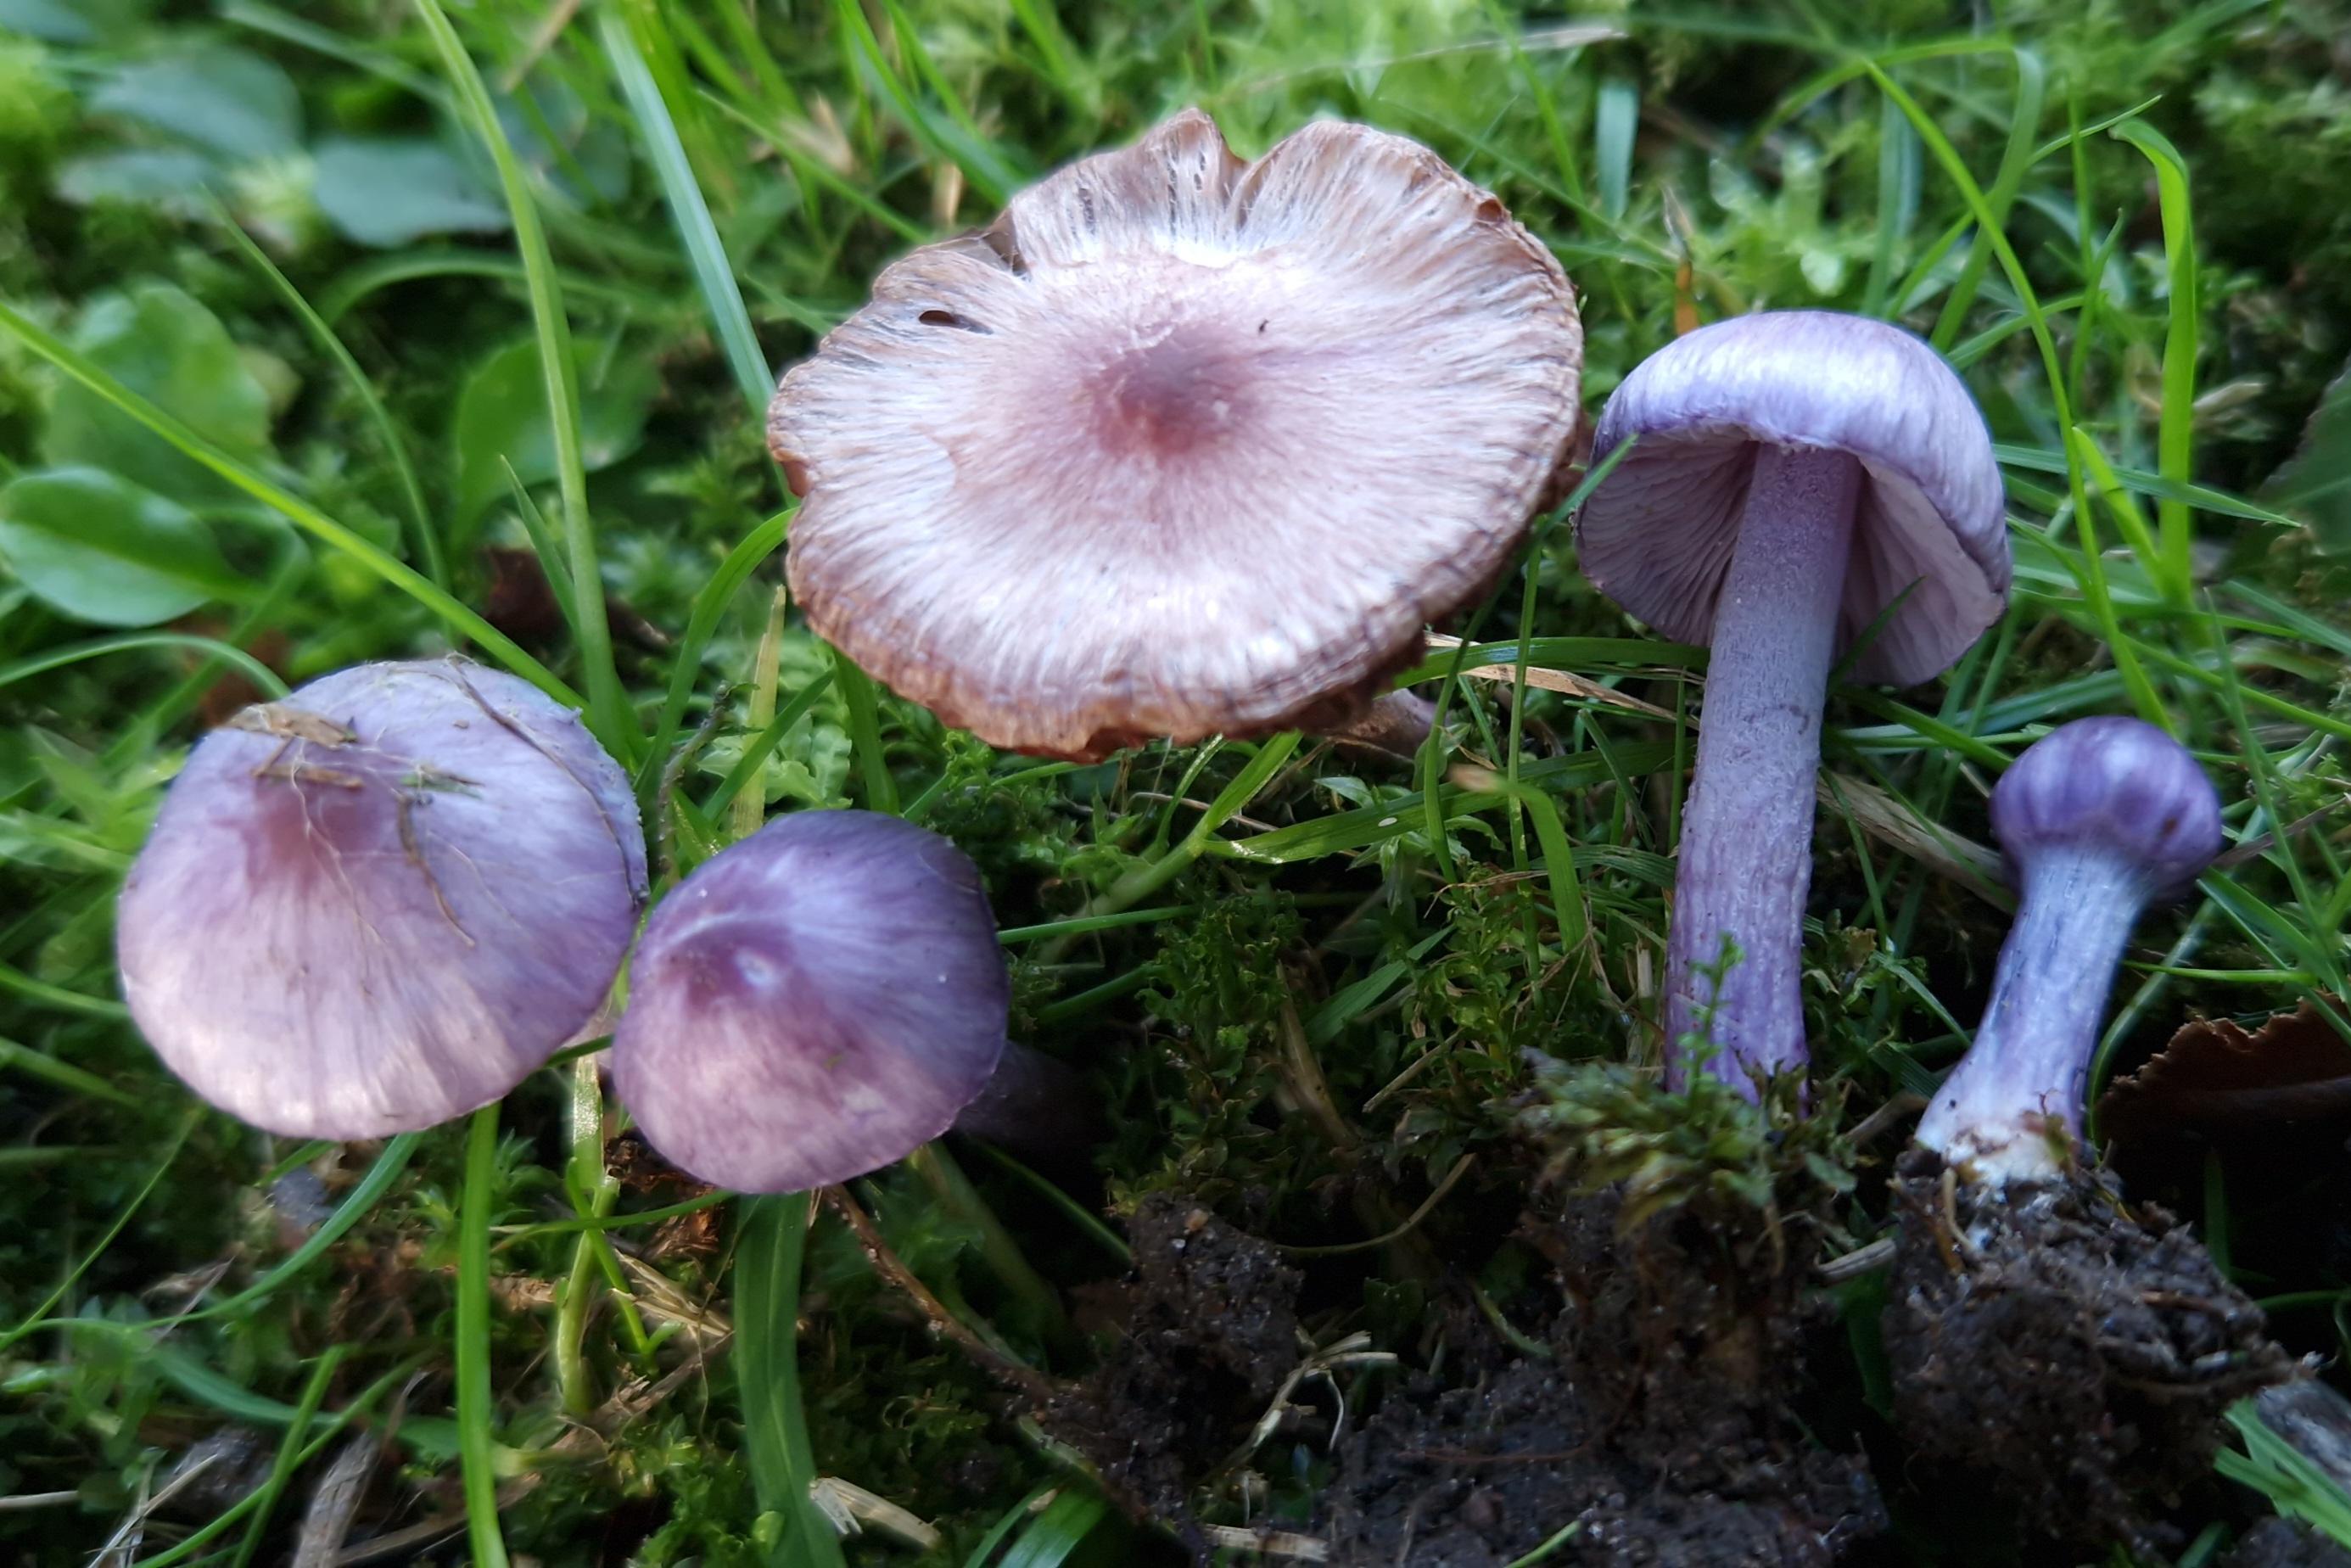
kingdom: Fungi
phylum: Basidiomycota
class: Agaricomycetes
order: Agaricales
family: Inocybaceae
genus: Inocybe
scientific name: Inocybe aphroditeana
